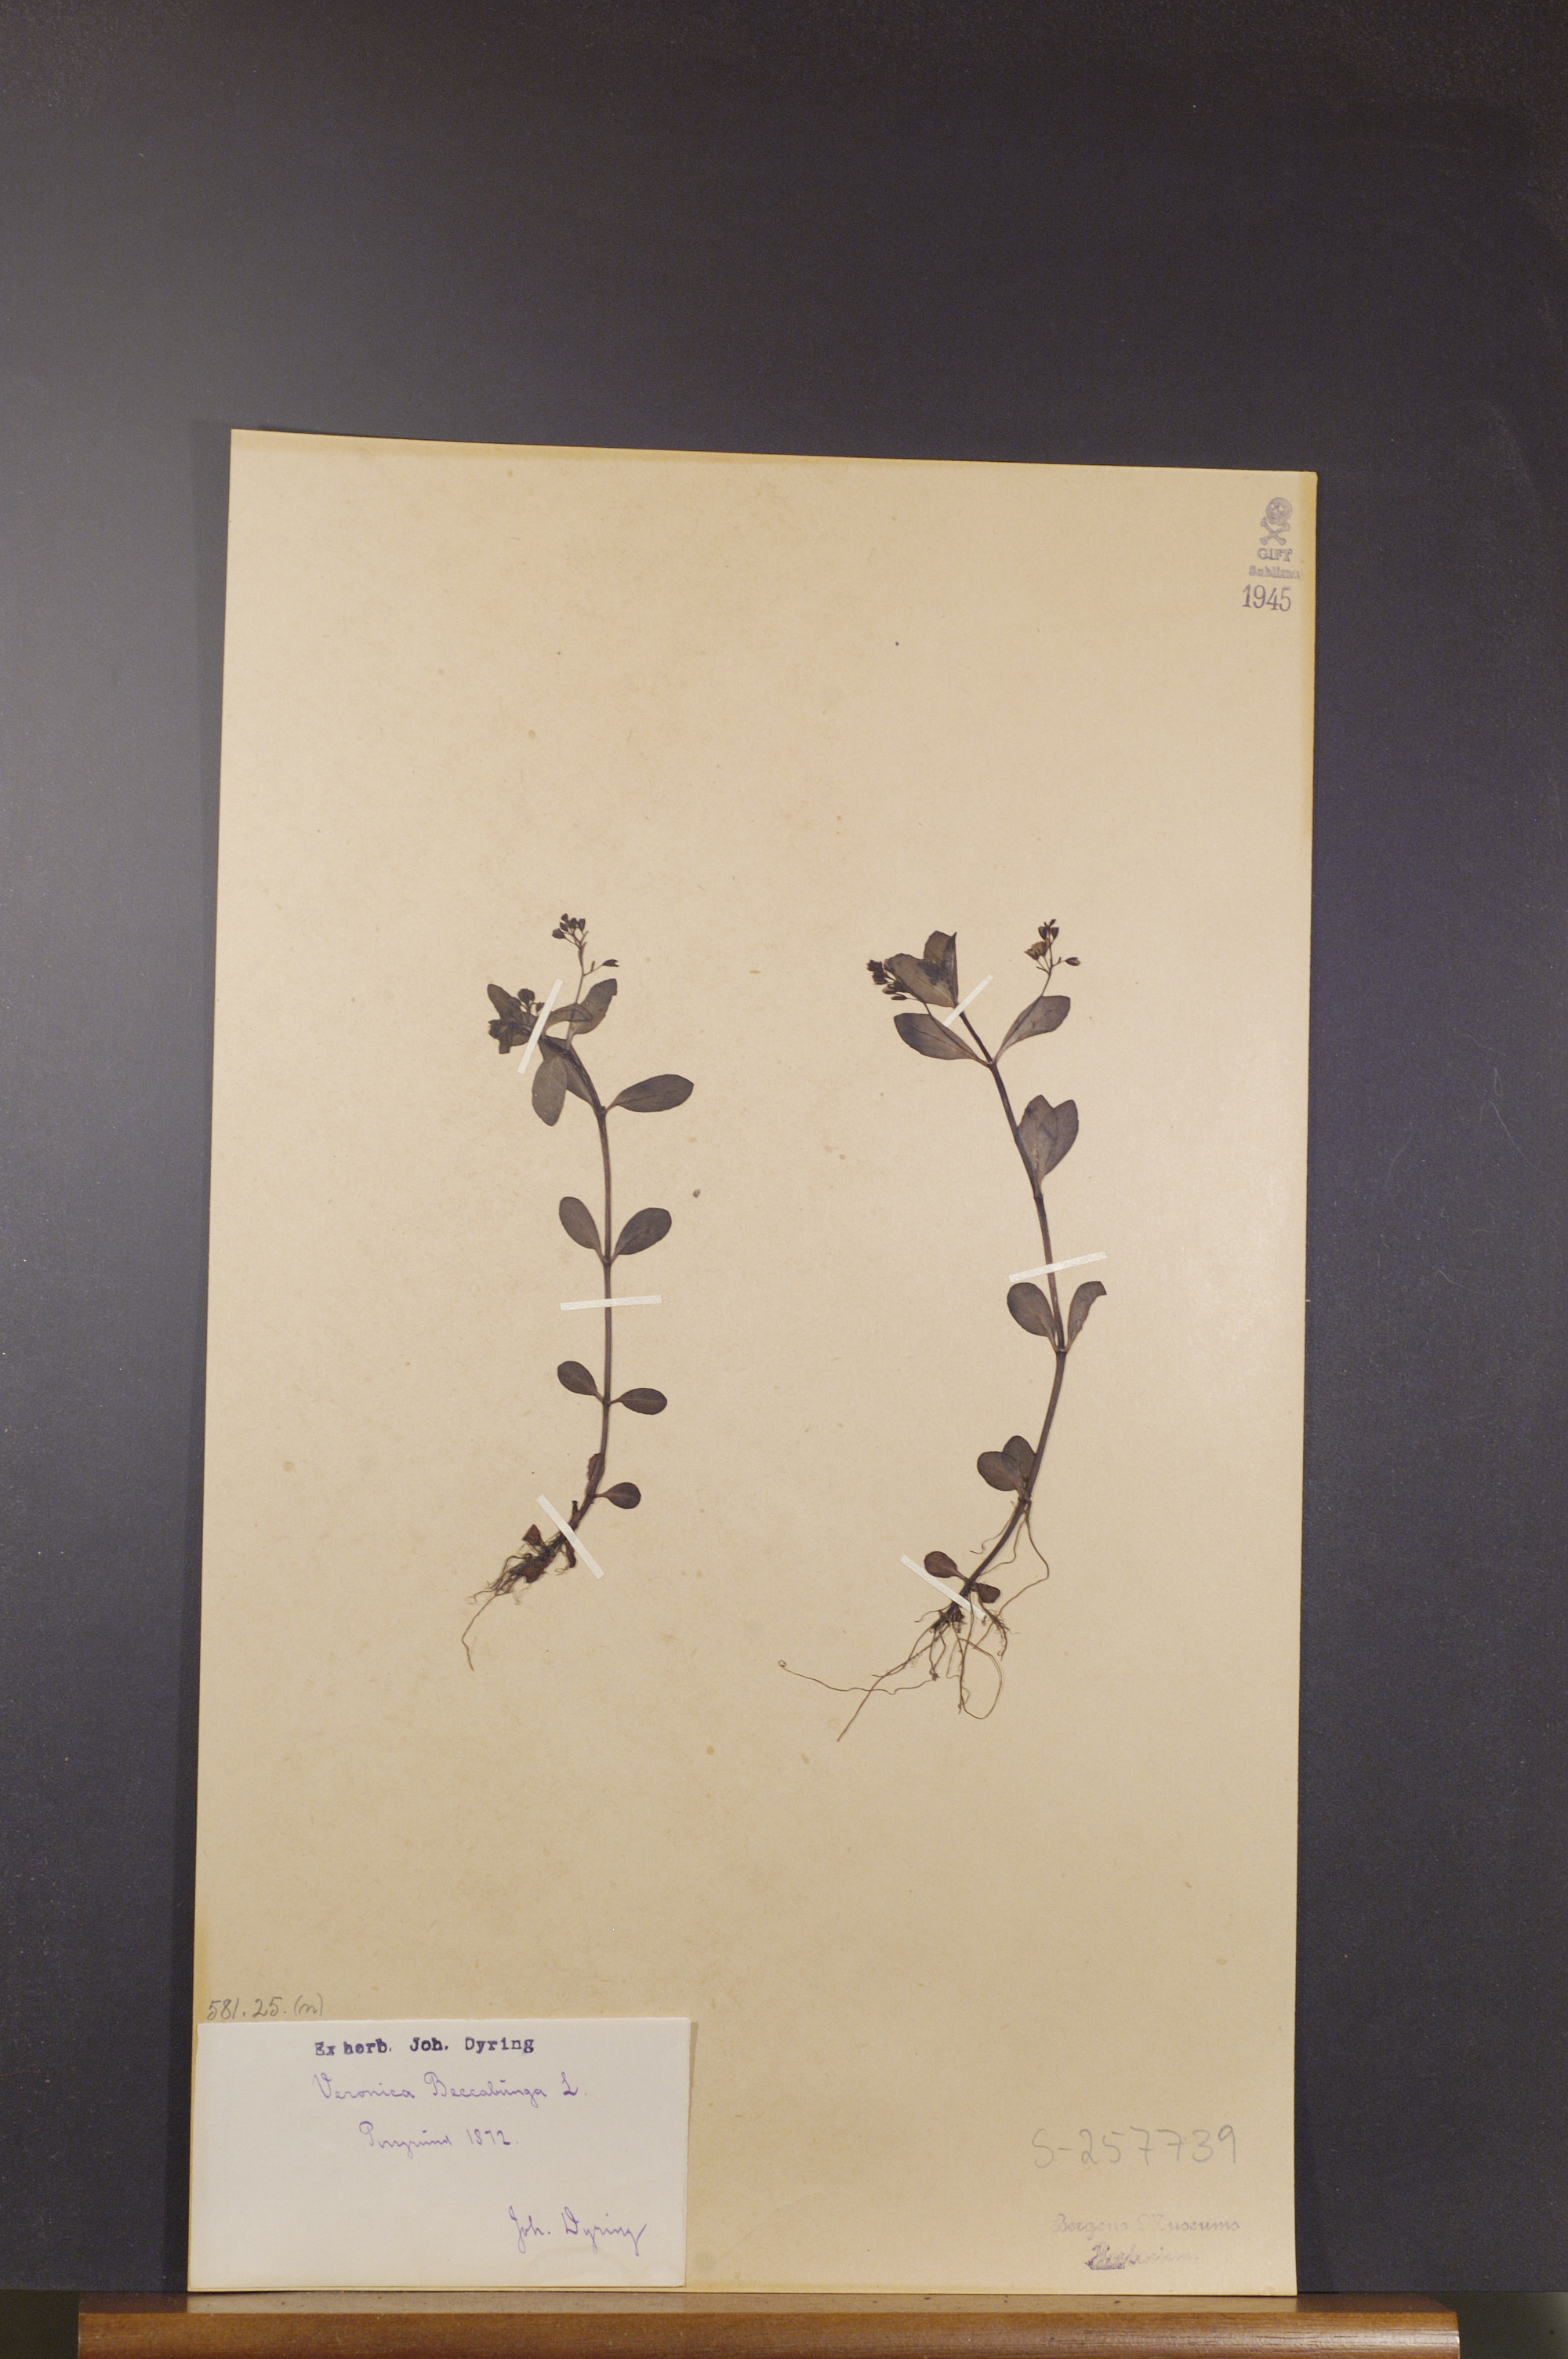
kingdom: Plantae
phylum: Tracheophyta
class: Magnoliopsida
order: Lamiales
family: Plantaginaceae
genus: Veronica
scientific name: Veronica beccabunga
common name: Brooklime
